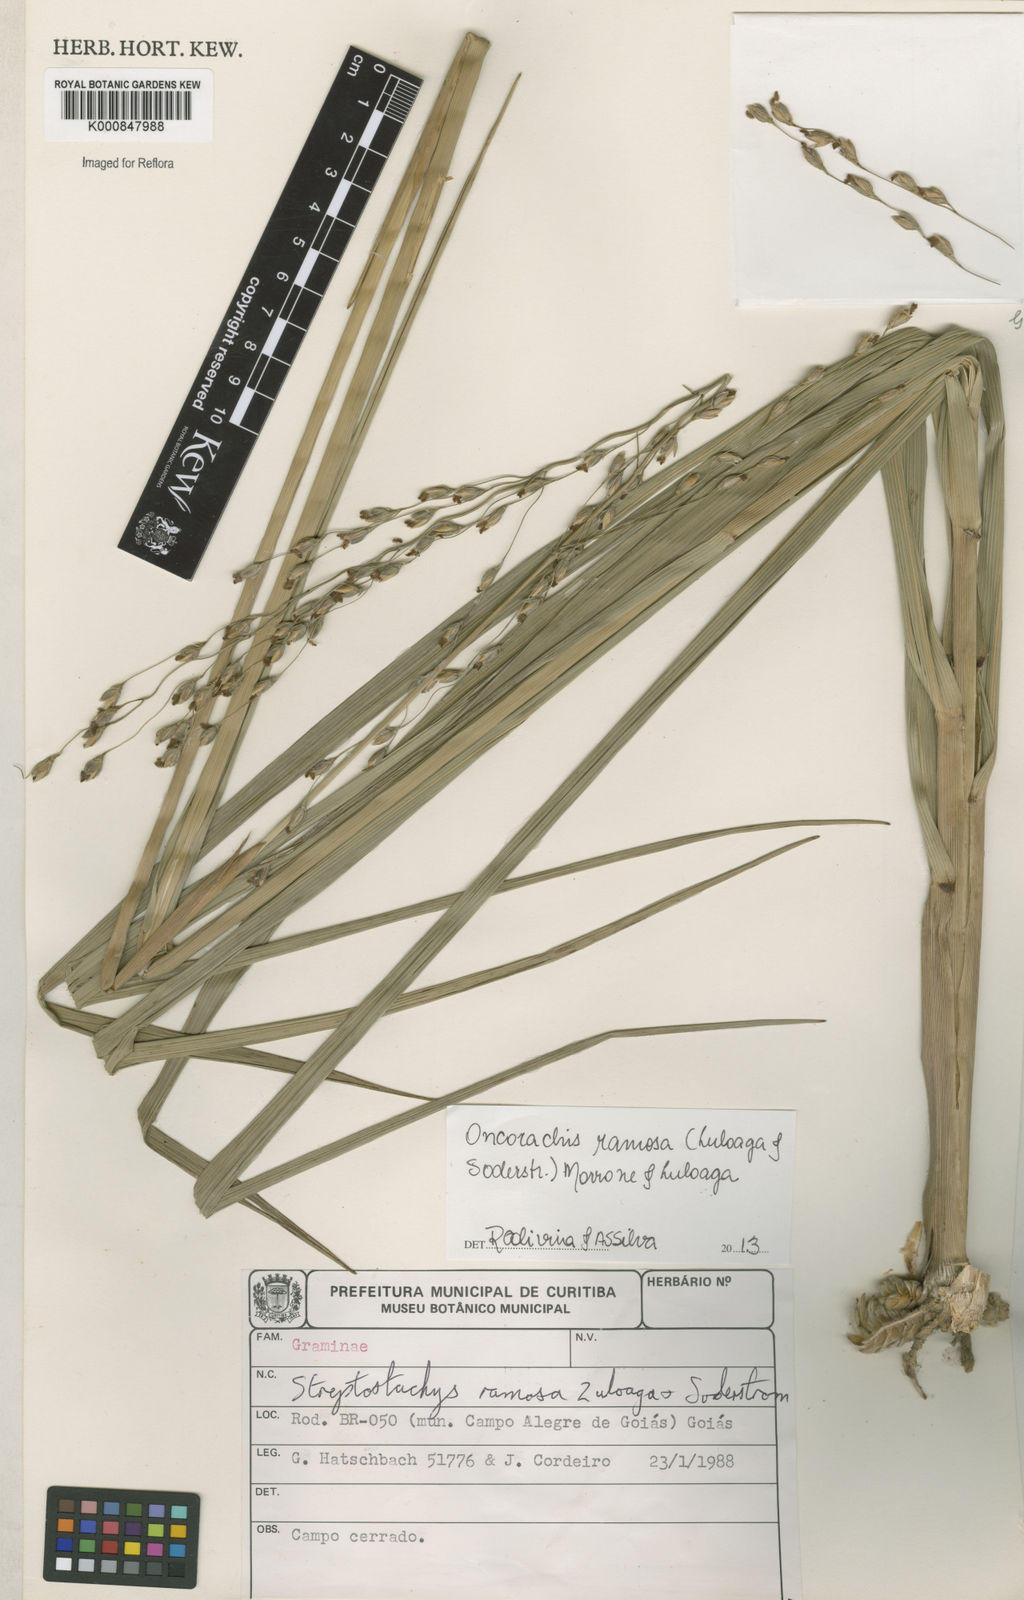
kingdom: Plantae
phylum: Tracheophyta
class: Liliopsida
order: Poales
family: Poaceae
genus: Oncorachis
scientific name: Oncorachis ramosa
